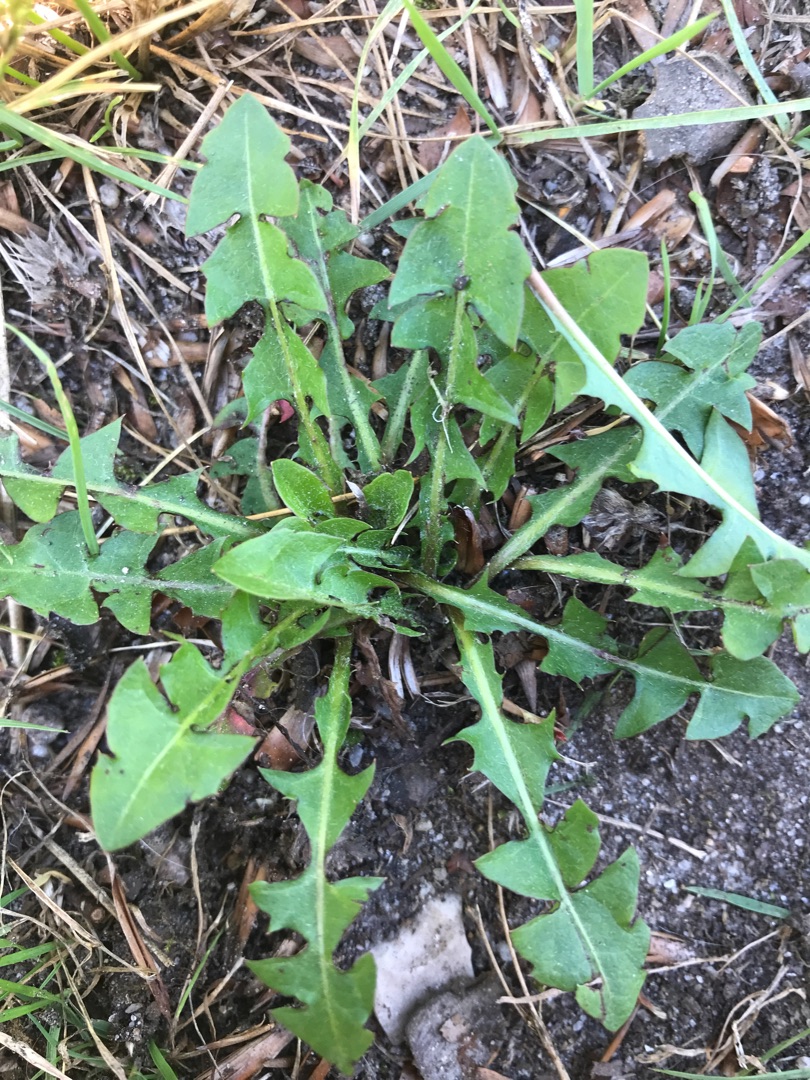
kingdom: Plantae
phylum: Tracheophyta
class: Magnoliopsida
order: Asterales
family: Asteraceae
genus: Taraxacum
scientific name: Taraxacum
